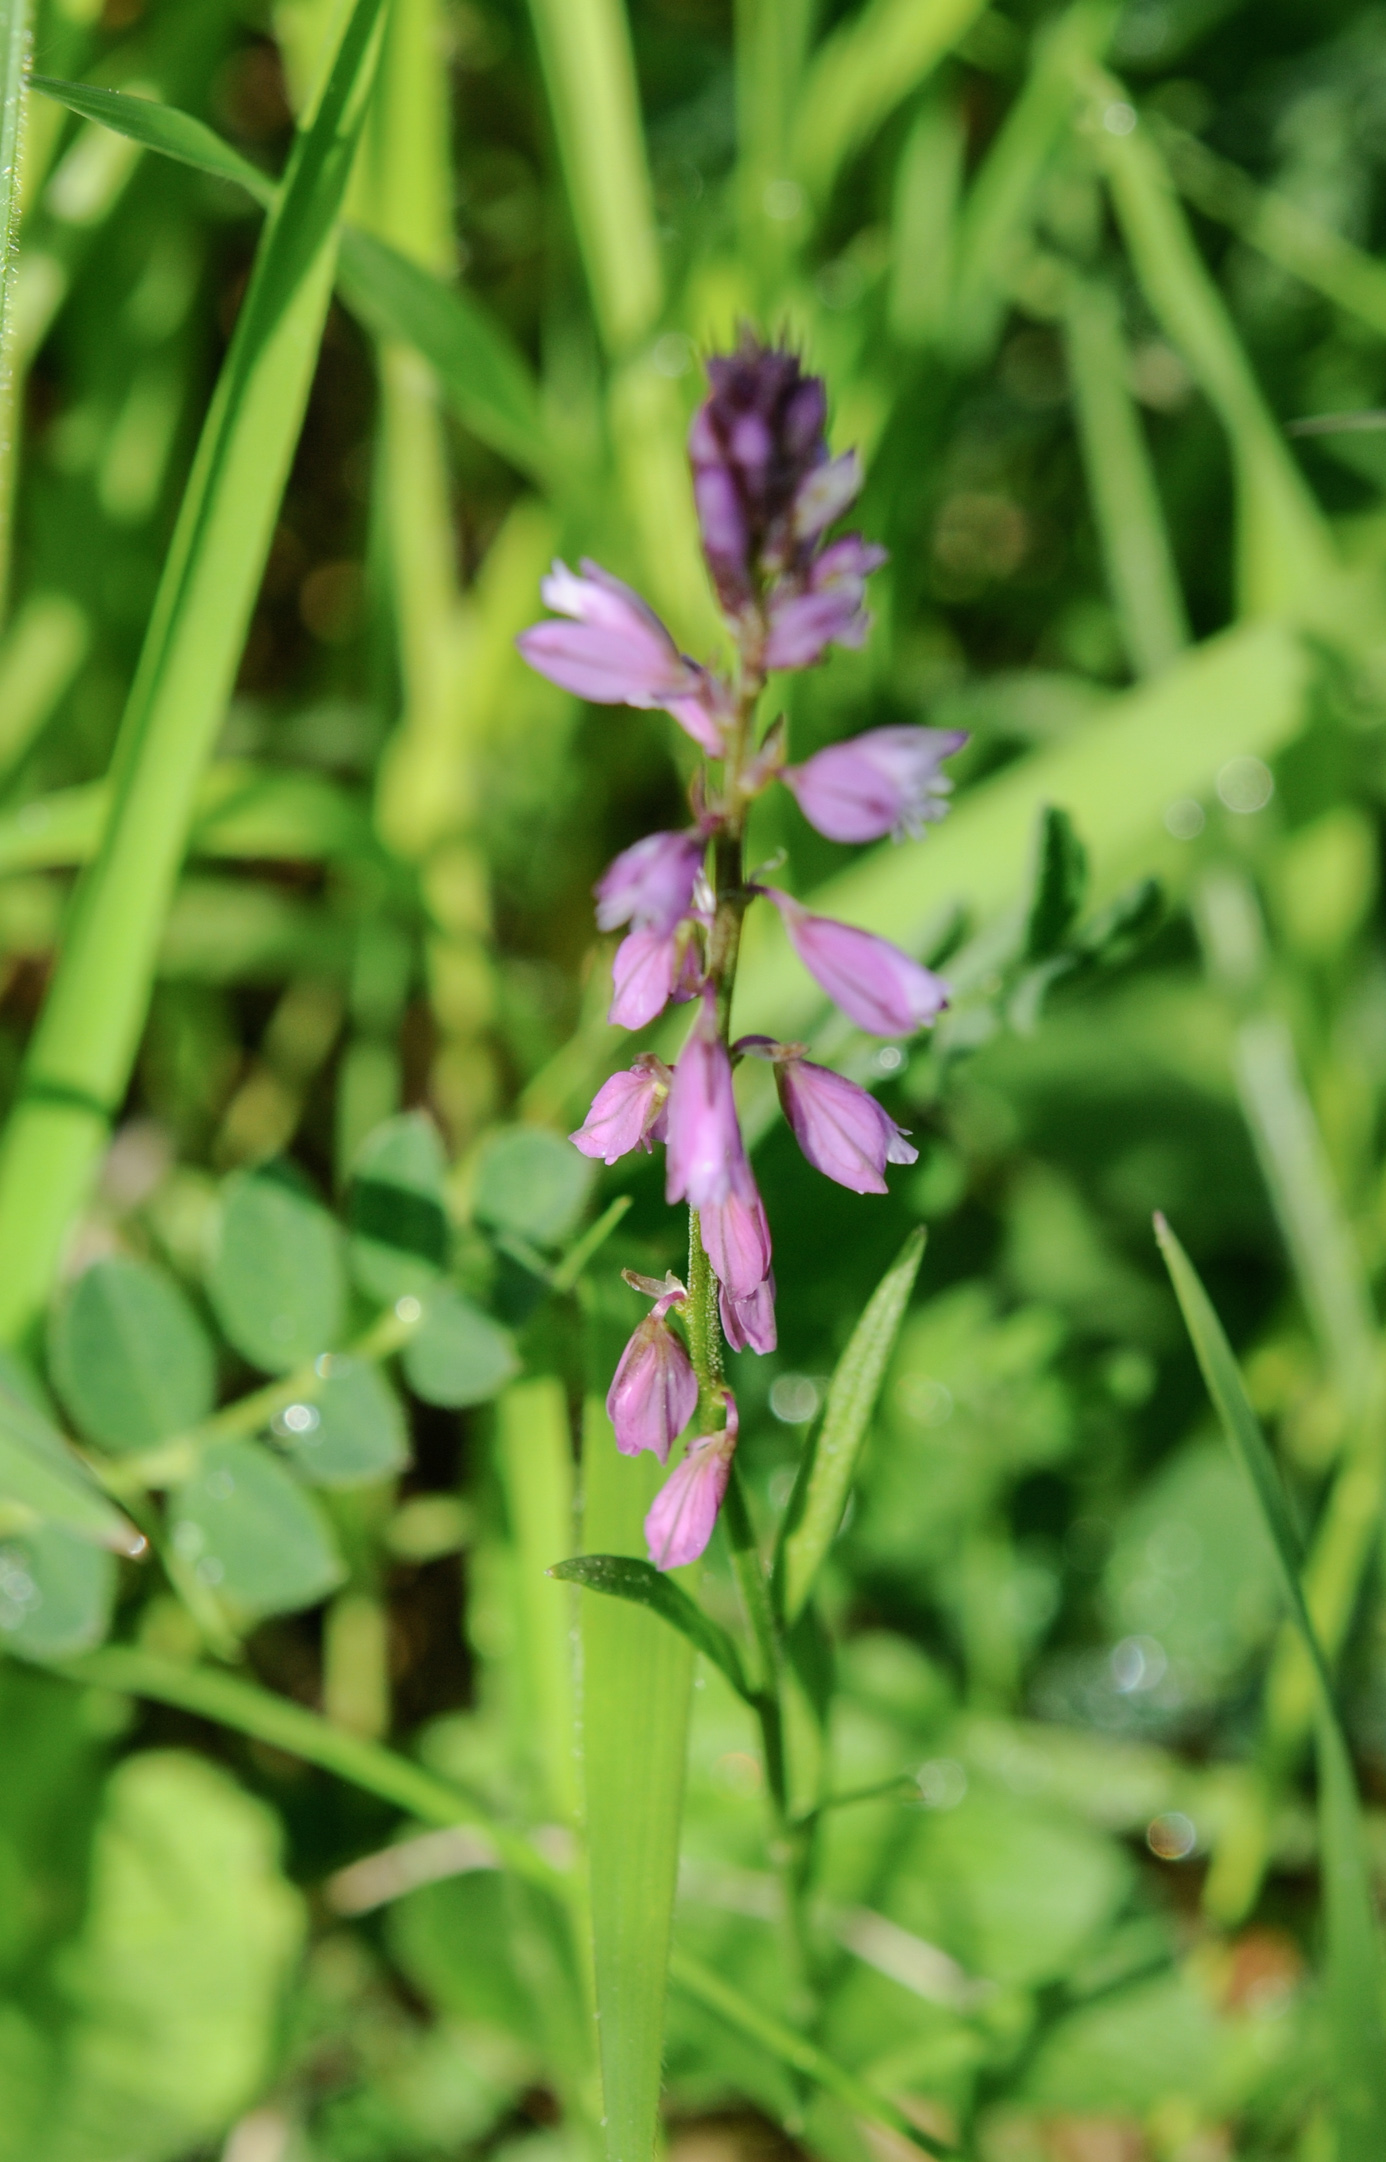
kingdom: Plantae
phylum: Tracheophyta
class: Magnoliopsida
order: Fabales
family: Polygalaceae
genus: Polygala
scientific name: Polygala comosa
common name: Tufted milkwort
